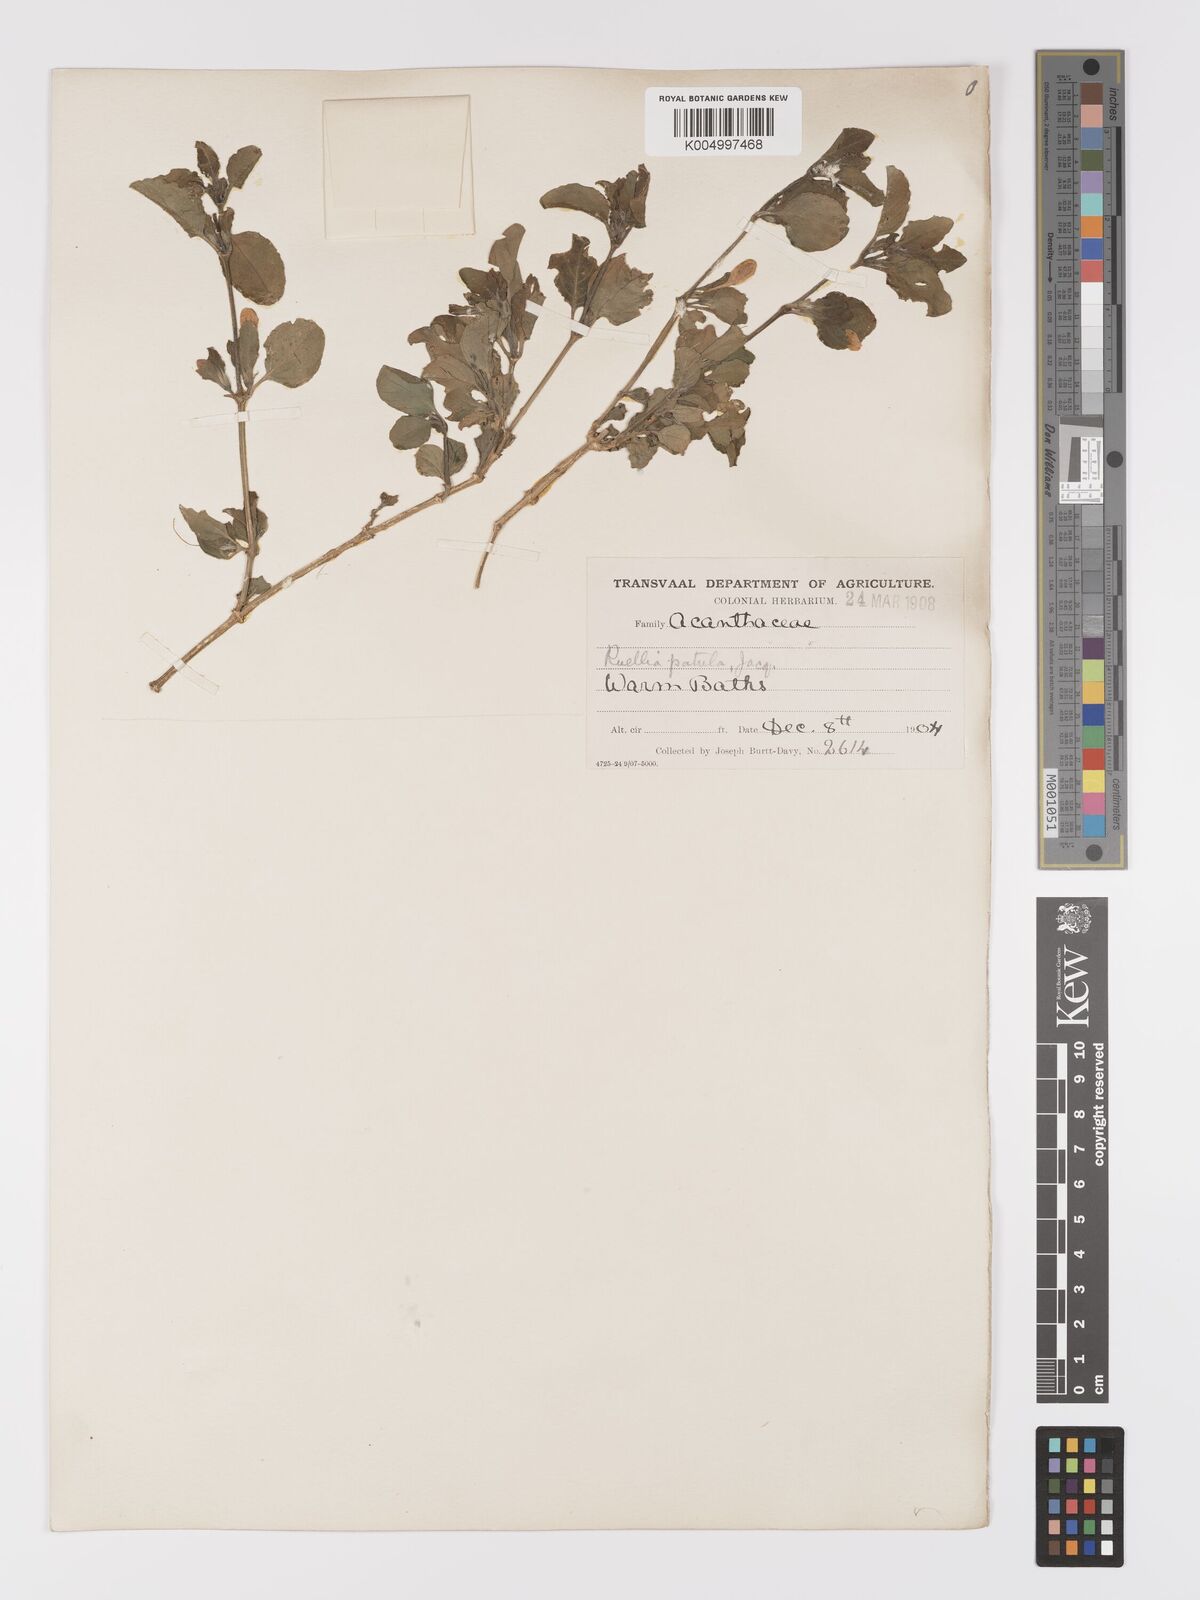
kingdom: Plantae
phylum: Tracheophyta
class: Magnoliopsida
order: Lamiales
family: Acanthaceae
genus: Ruellia
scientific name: Ruellia cordata
